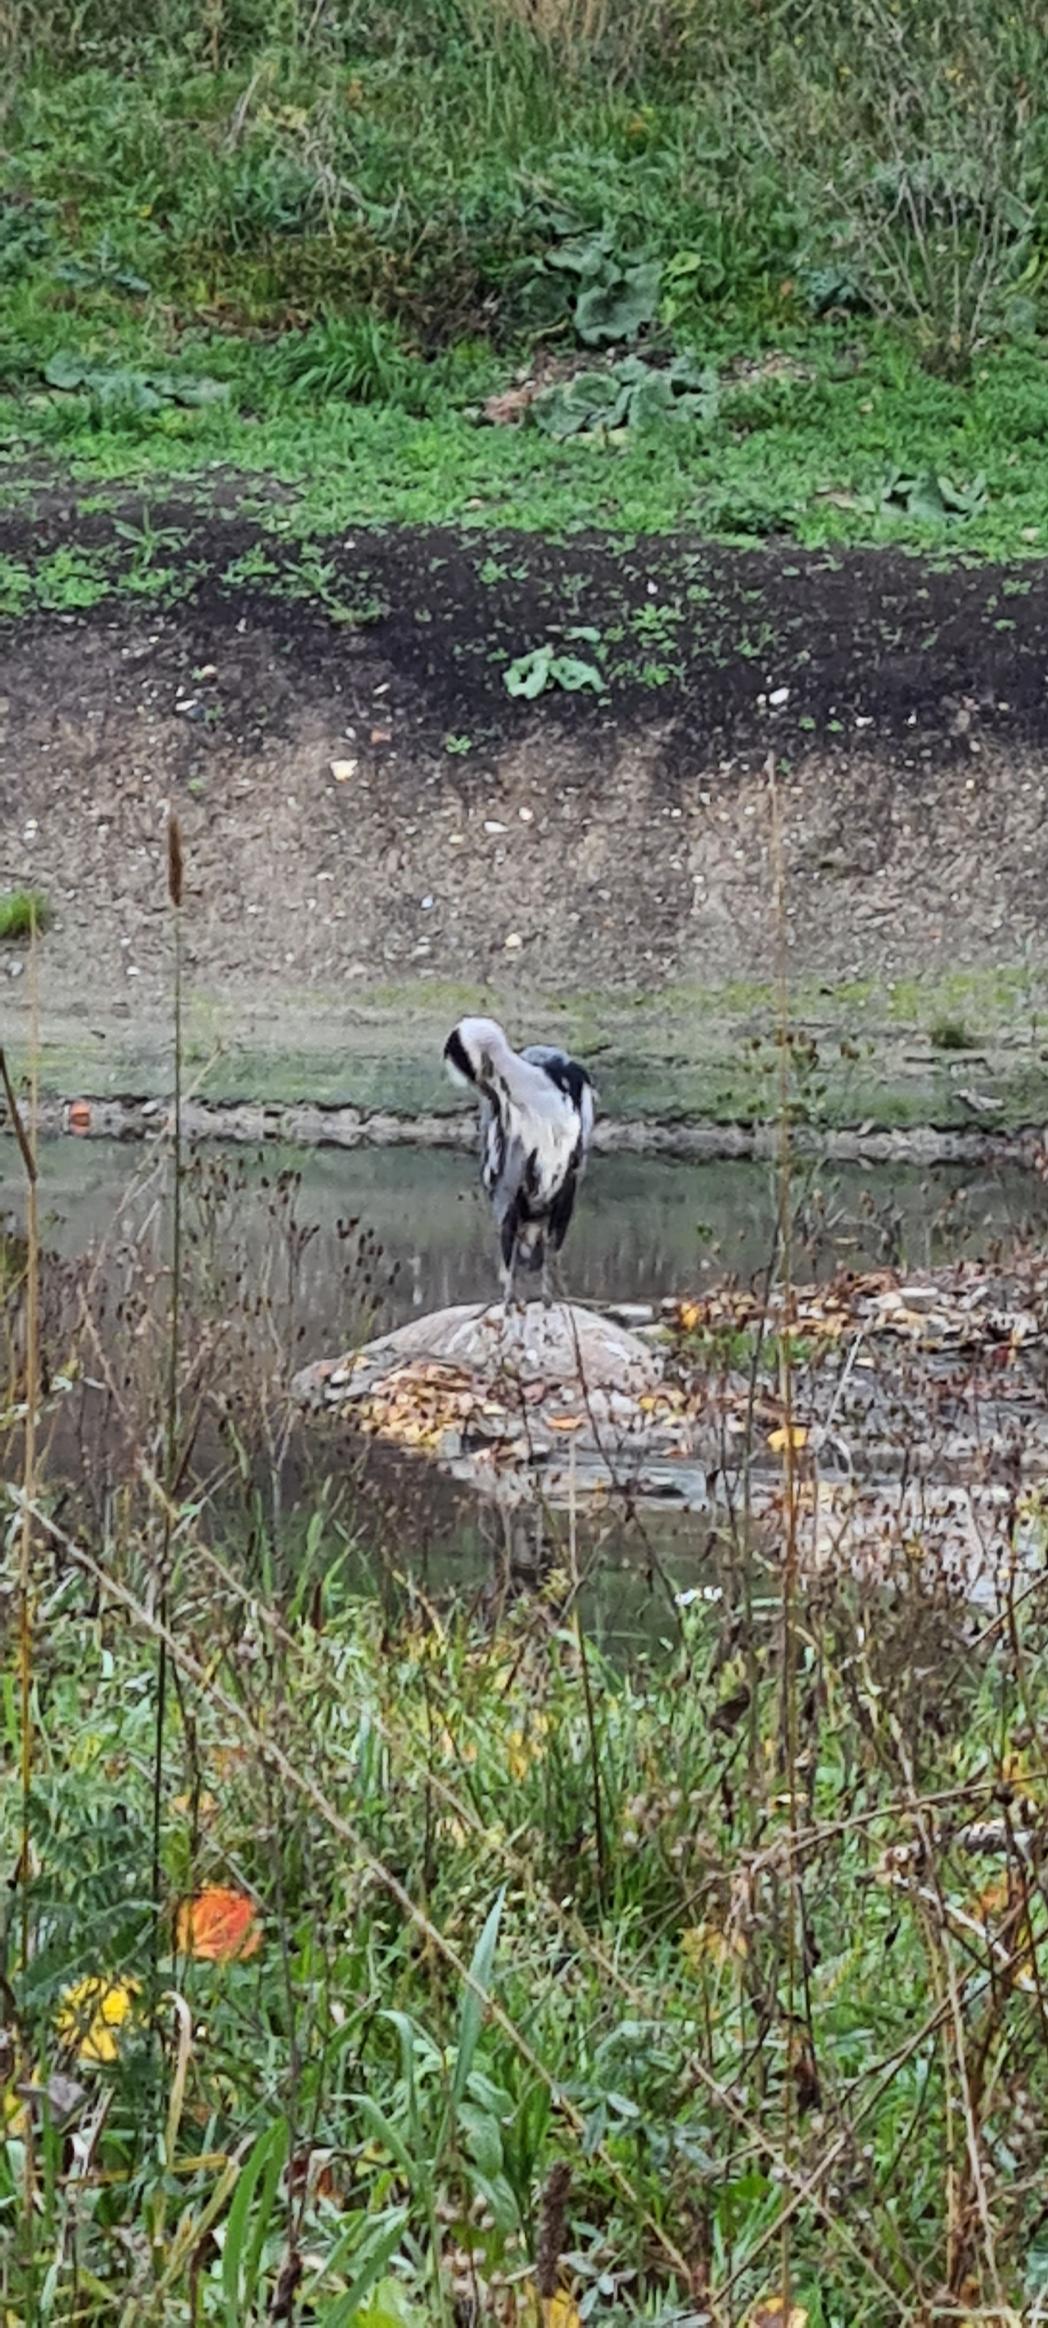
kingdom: Animalia
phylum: Chordata
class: Aves
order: Pelecaniformes
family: Ardeidae
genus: Ardea
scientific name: Ardea cinerea
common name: Fiskehejre
